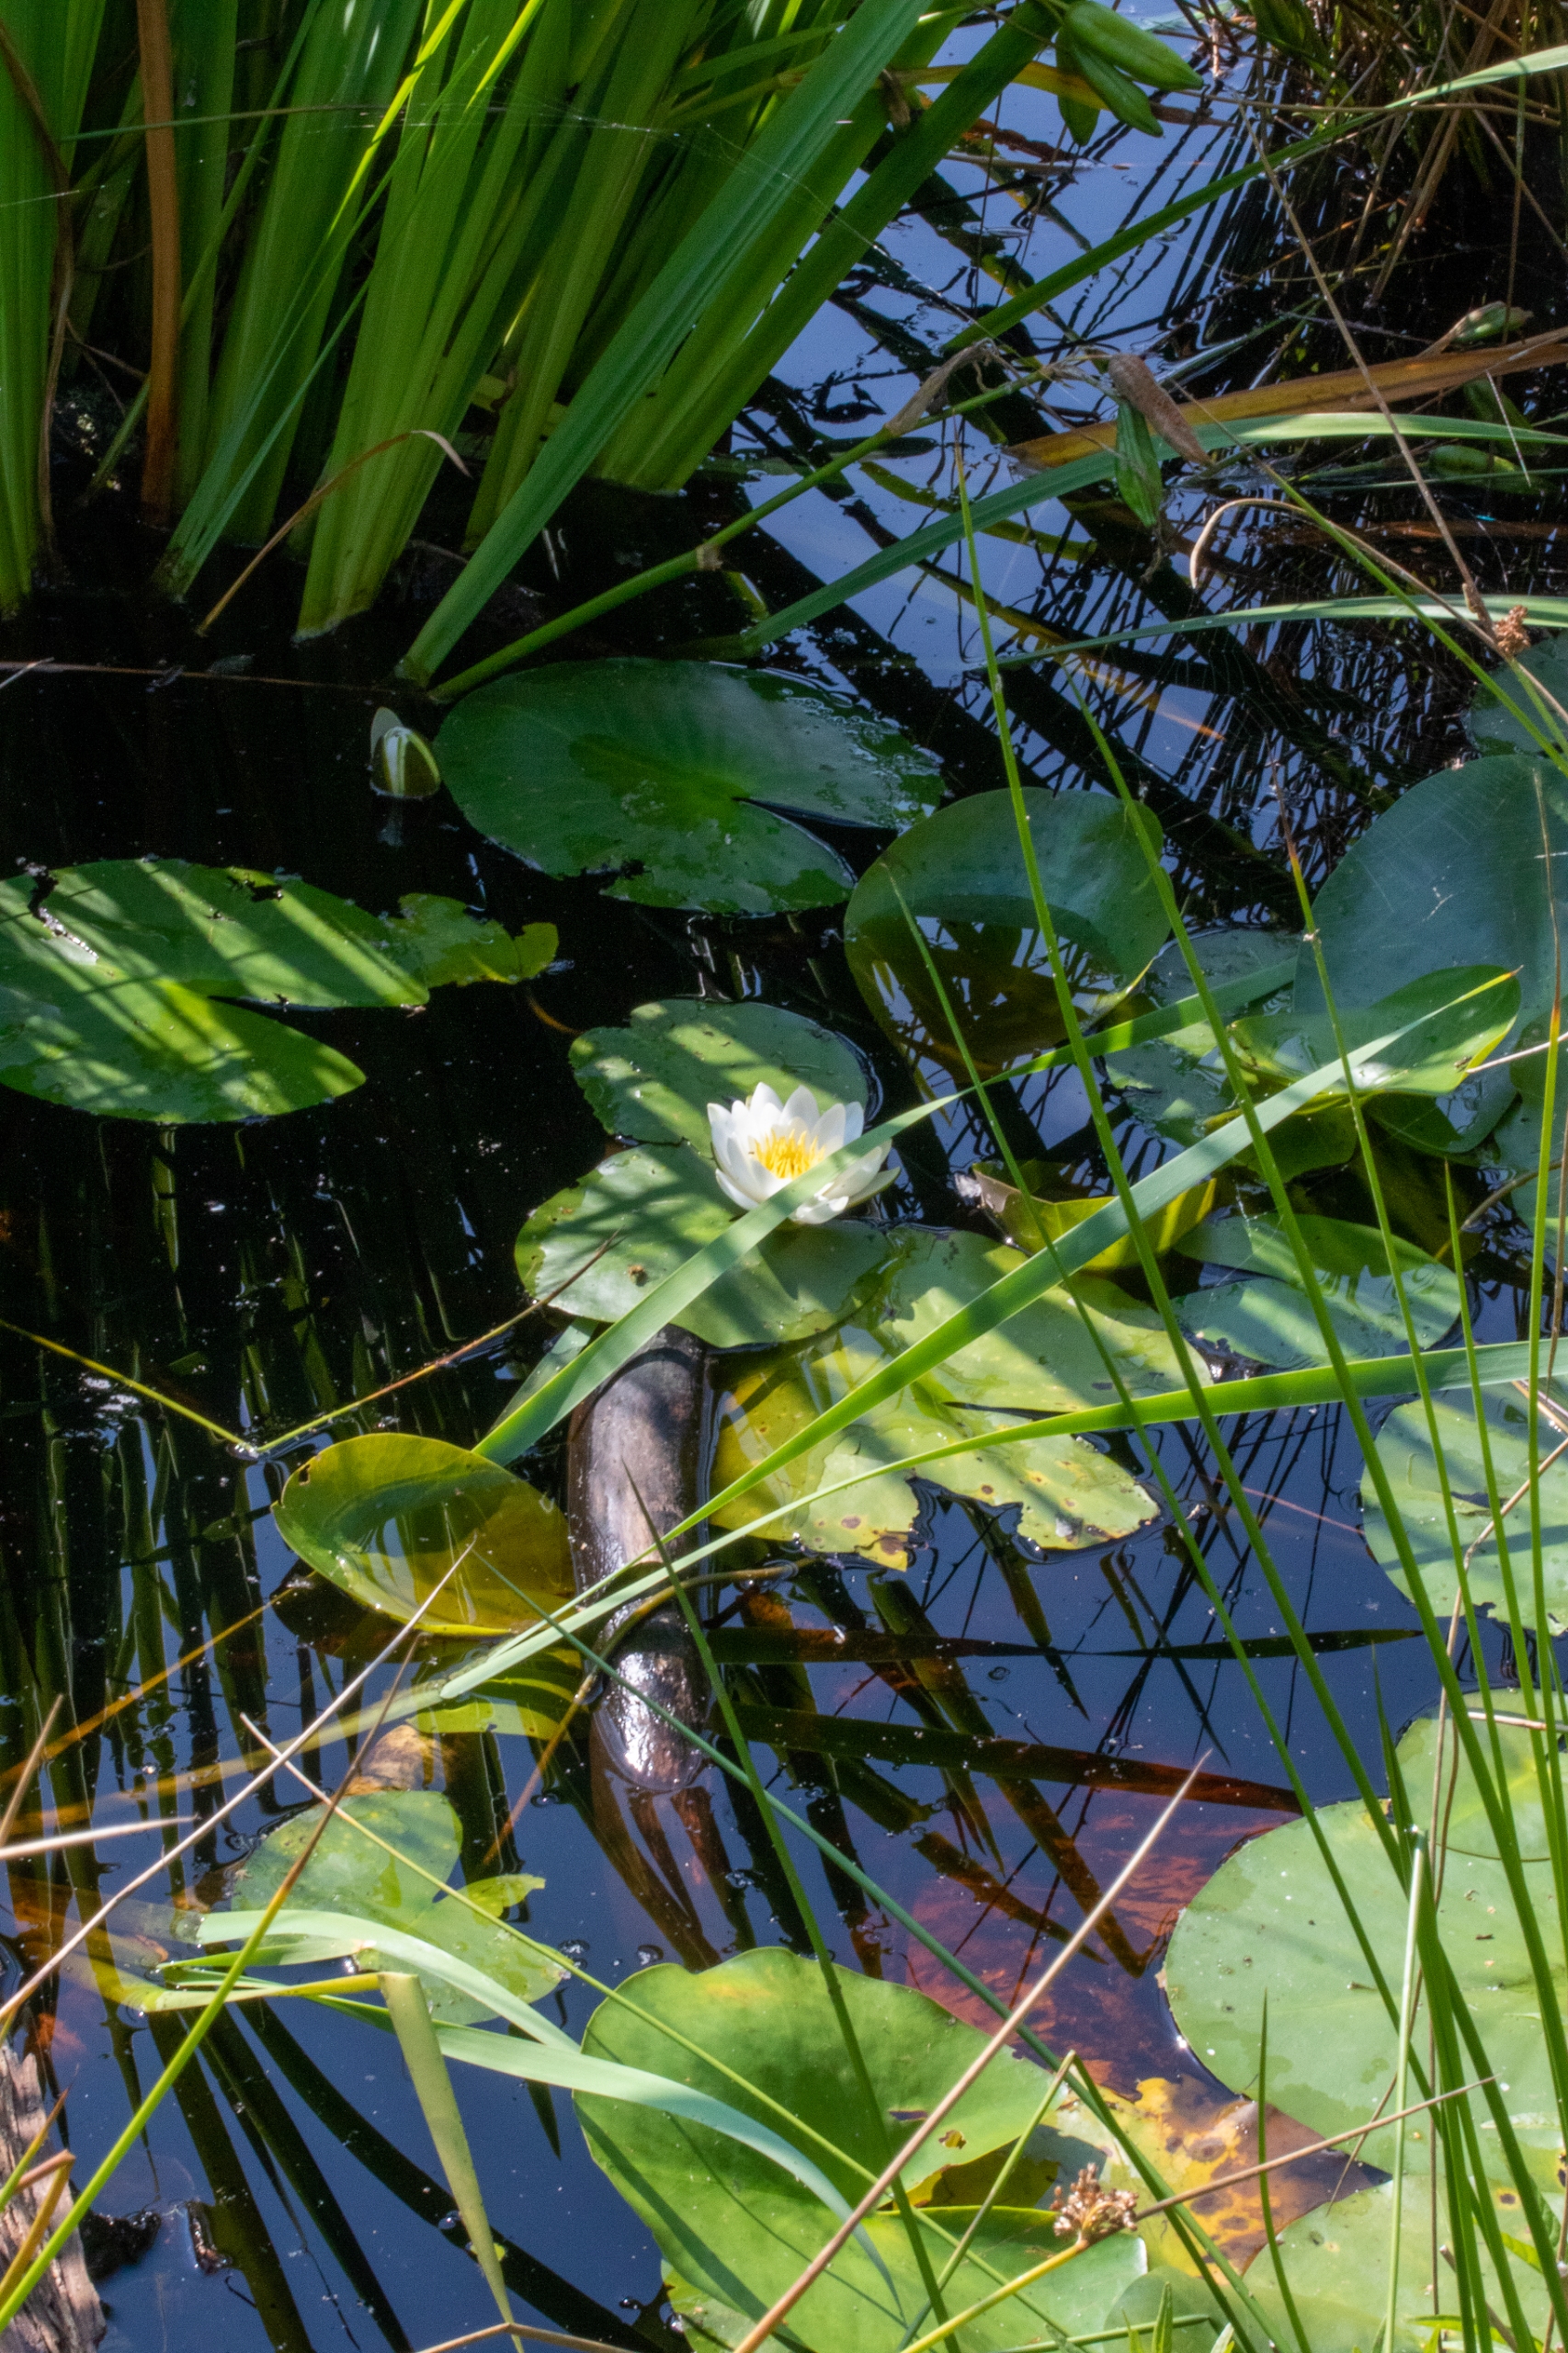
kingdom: Plantae
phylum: Tracheophyta
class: Magnoliopsida
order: Nymphaeales
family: Nymphaeaceae
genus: Nymphaea
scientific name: Nymphaea alba
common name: Hvid åkande
